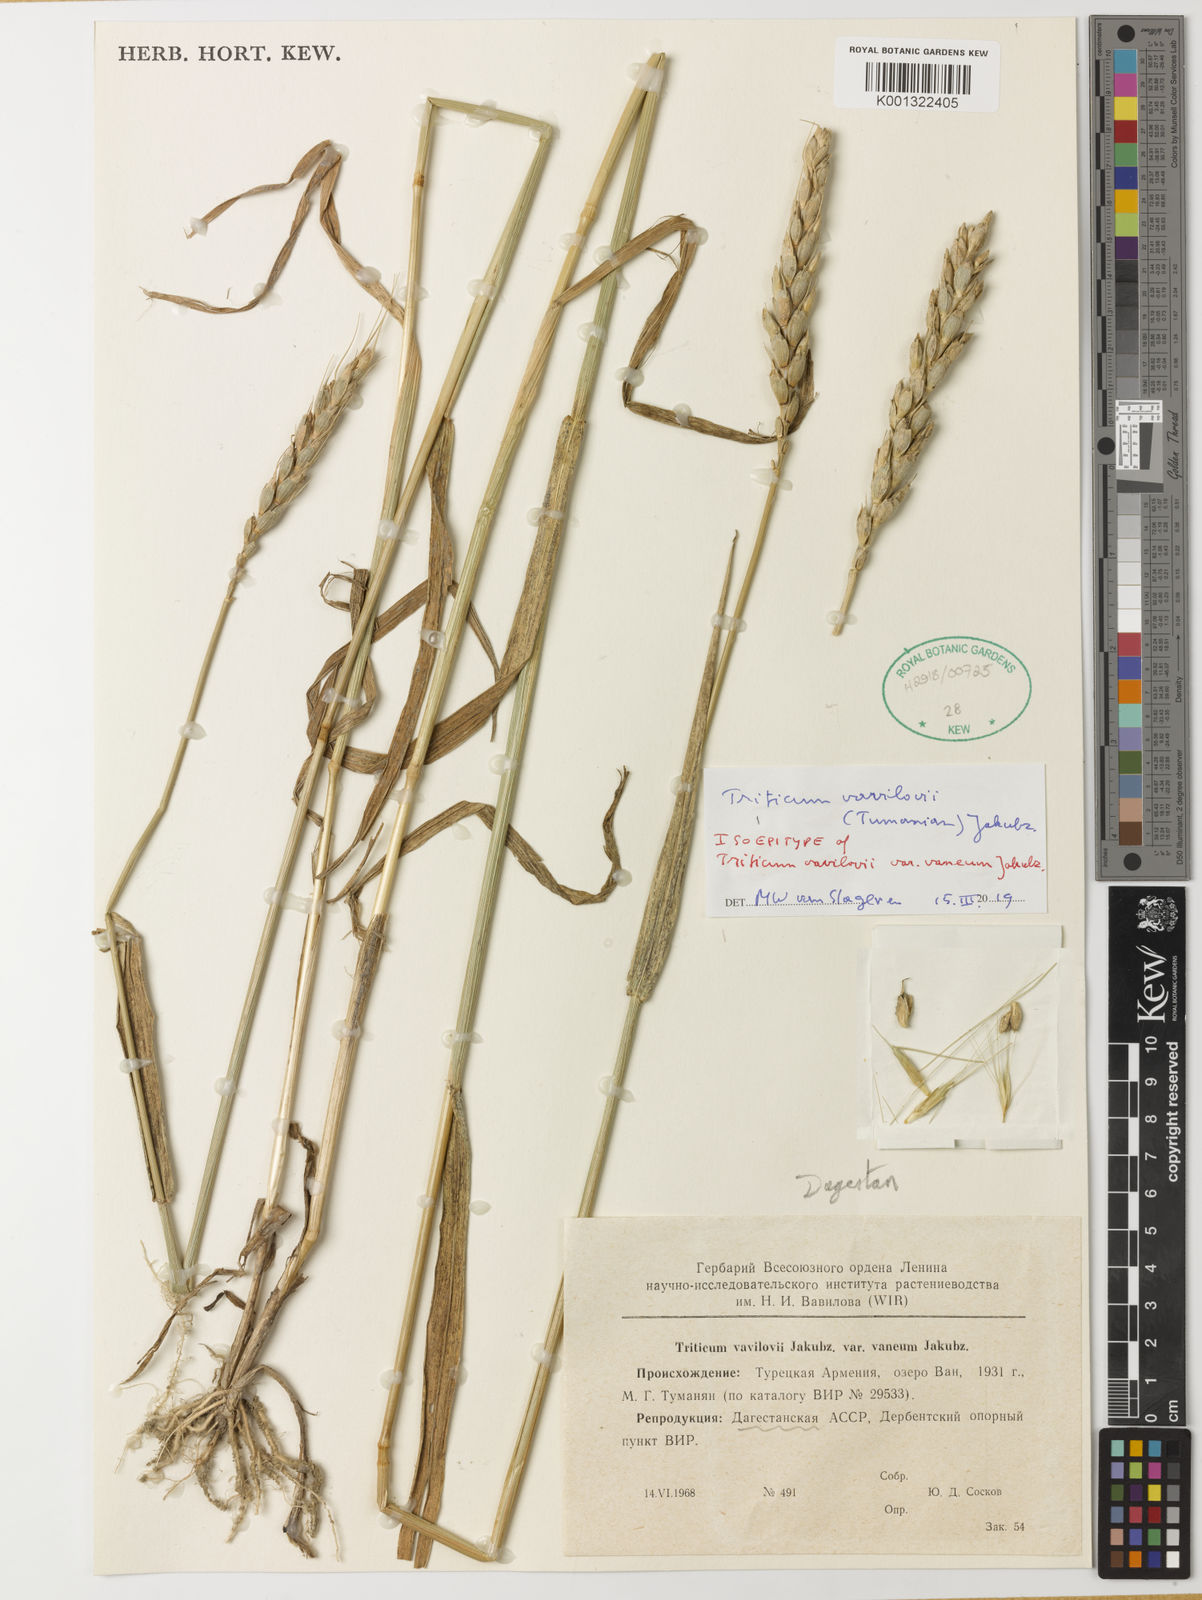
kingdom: Plantae
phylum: Tracheophyta
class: Liliopsida
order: Poales
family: Poaceae
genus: Triticum
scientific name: Triticum aestivum
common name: Common wheat
